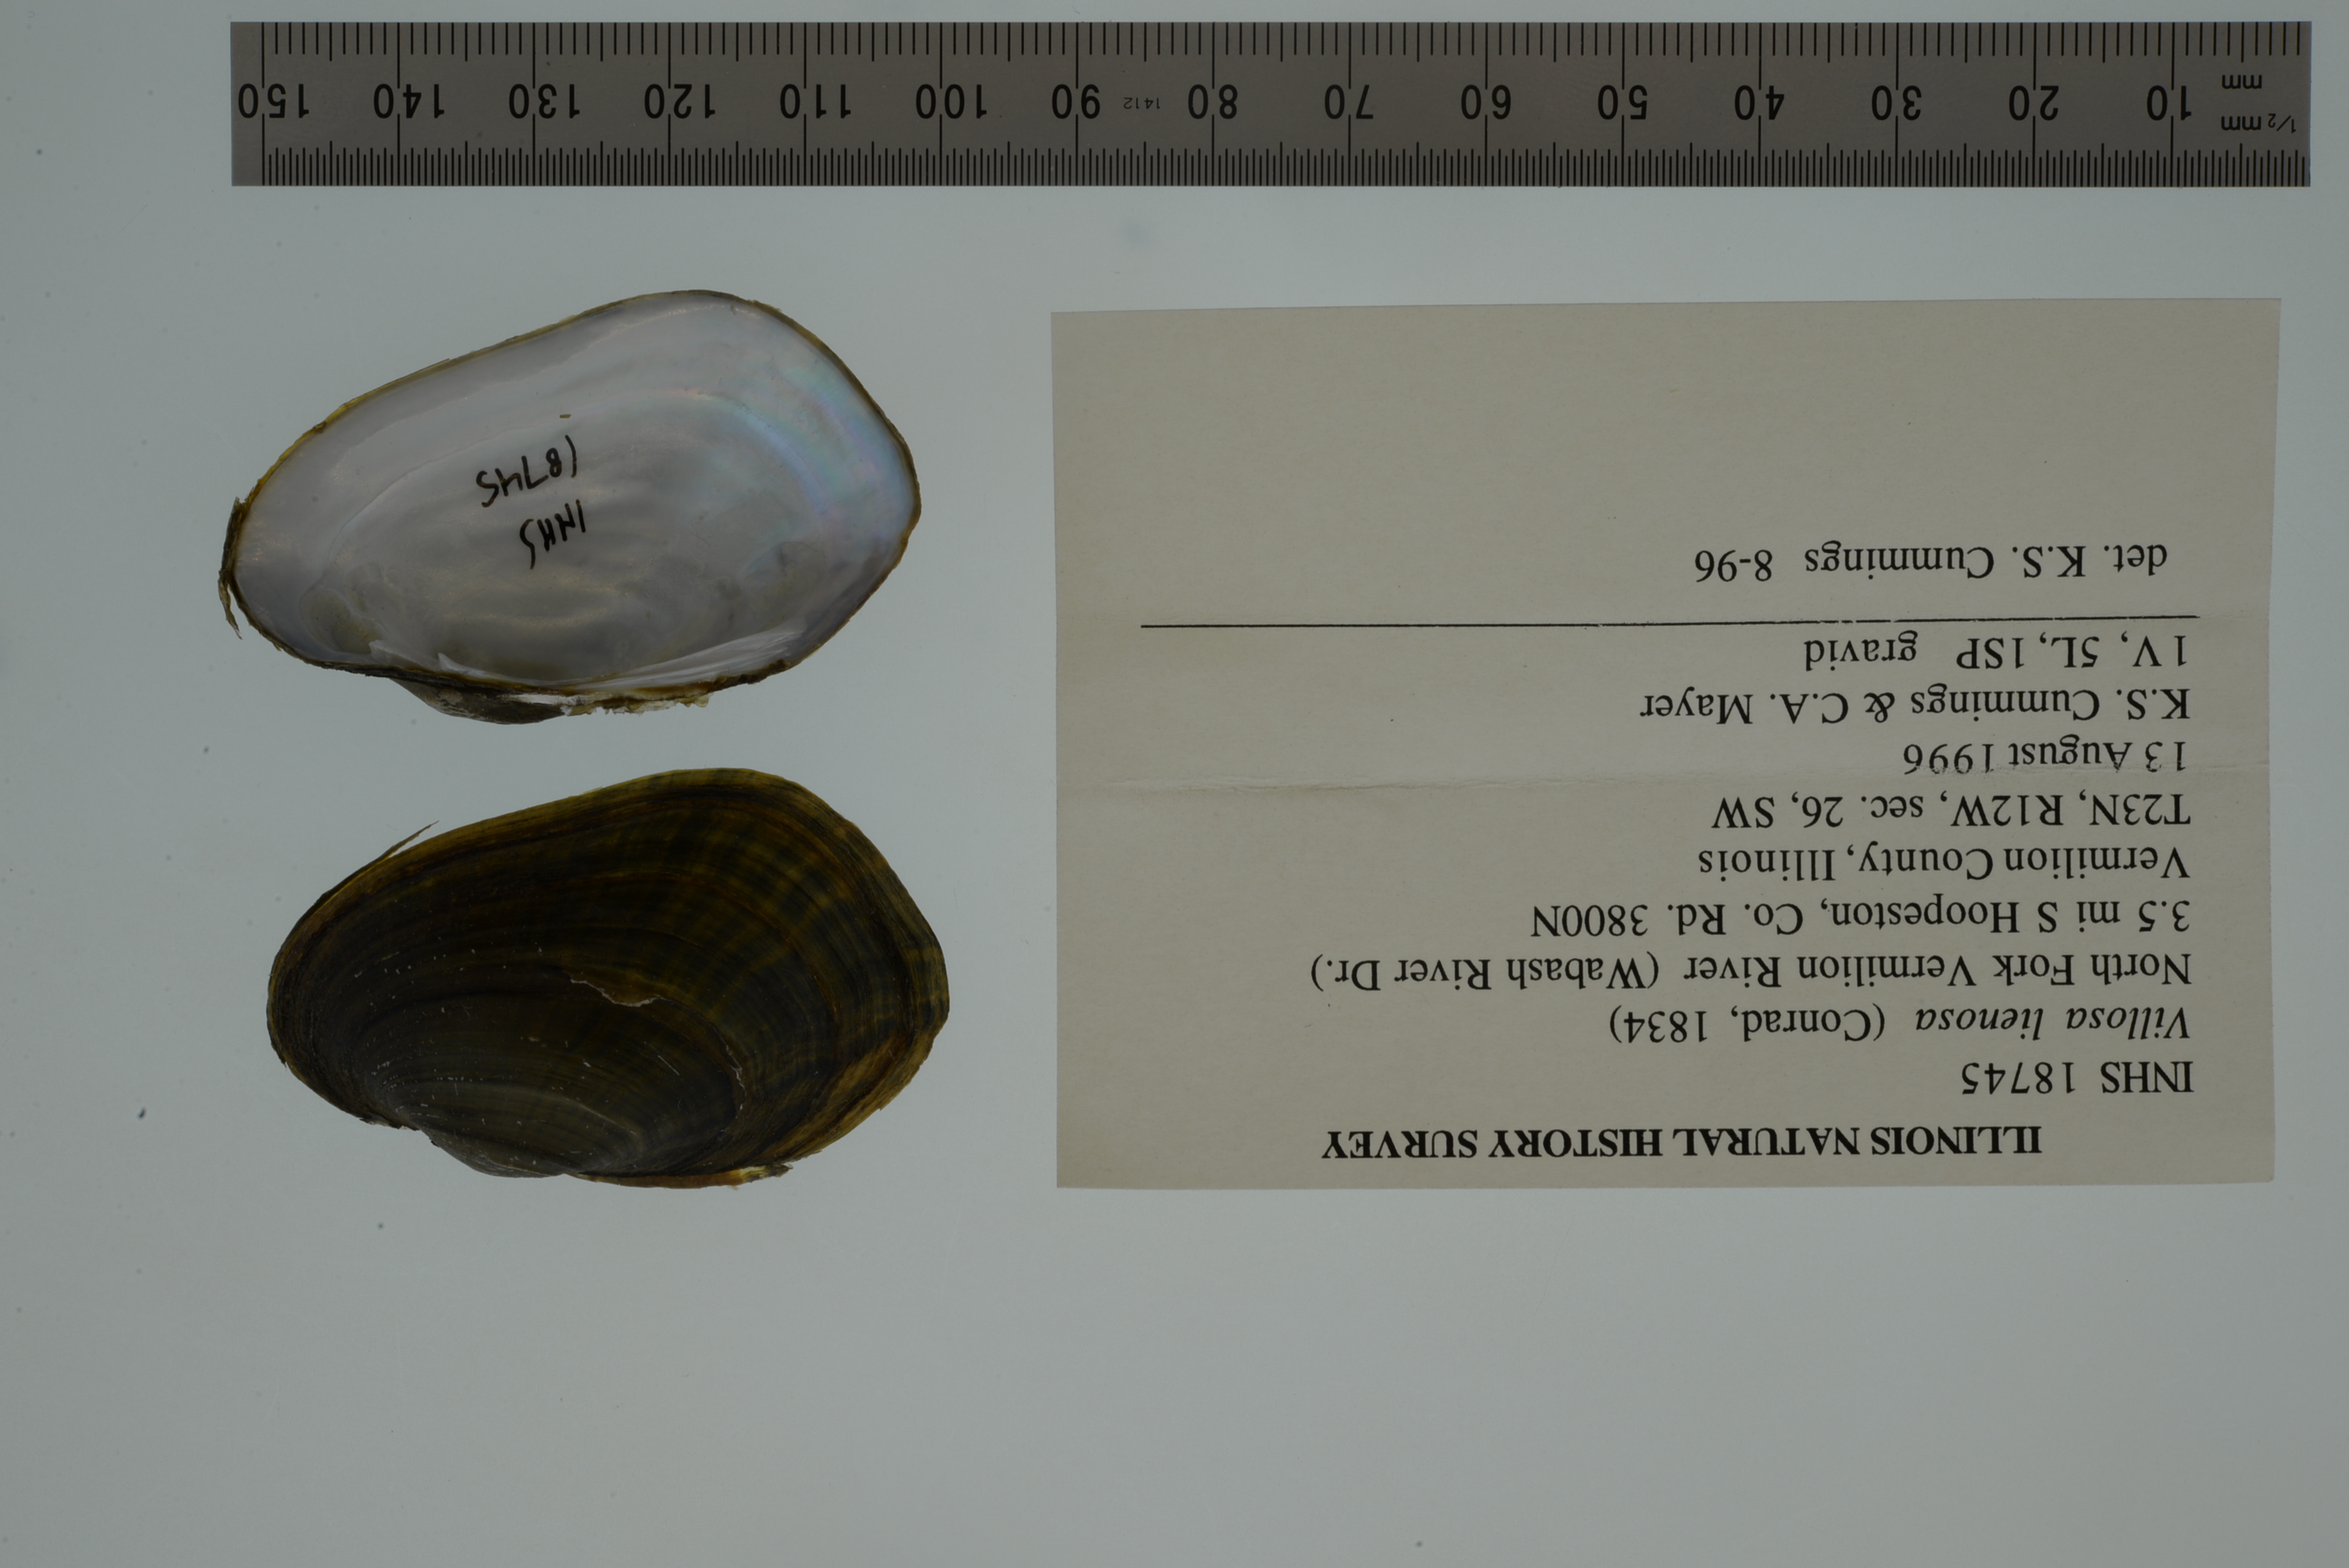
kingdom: Animalia
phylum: Mollusca
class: Bivalvia
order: Unionida
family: Unionidae
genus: Leaunio
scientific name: Leaunio lienosus
